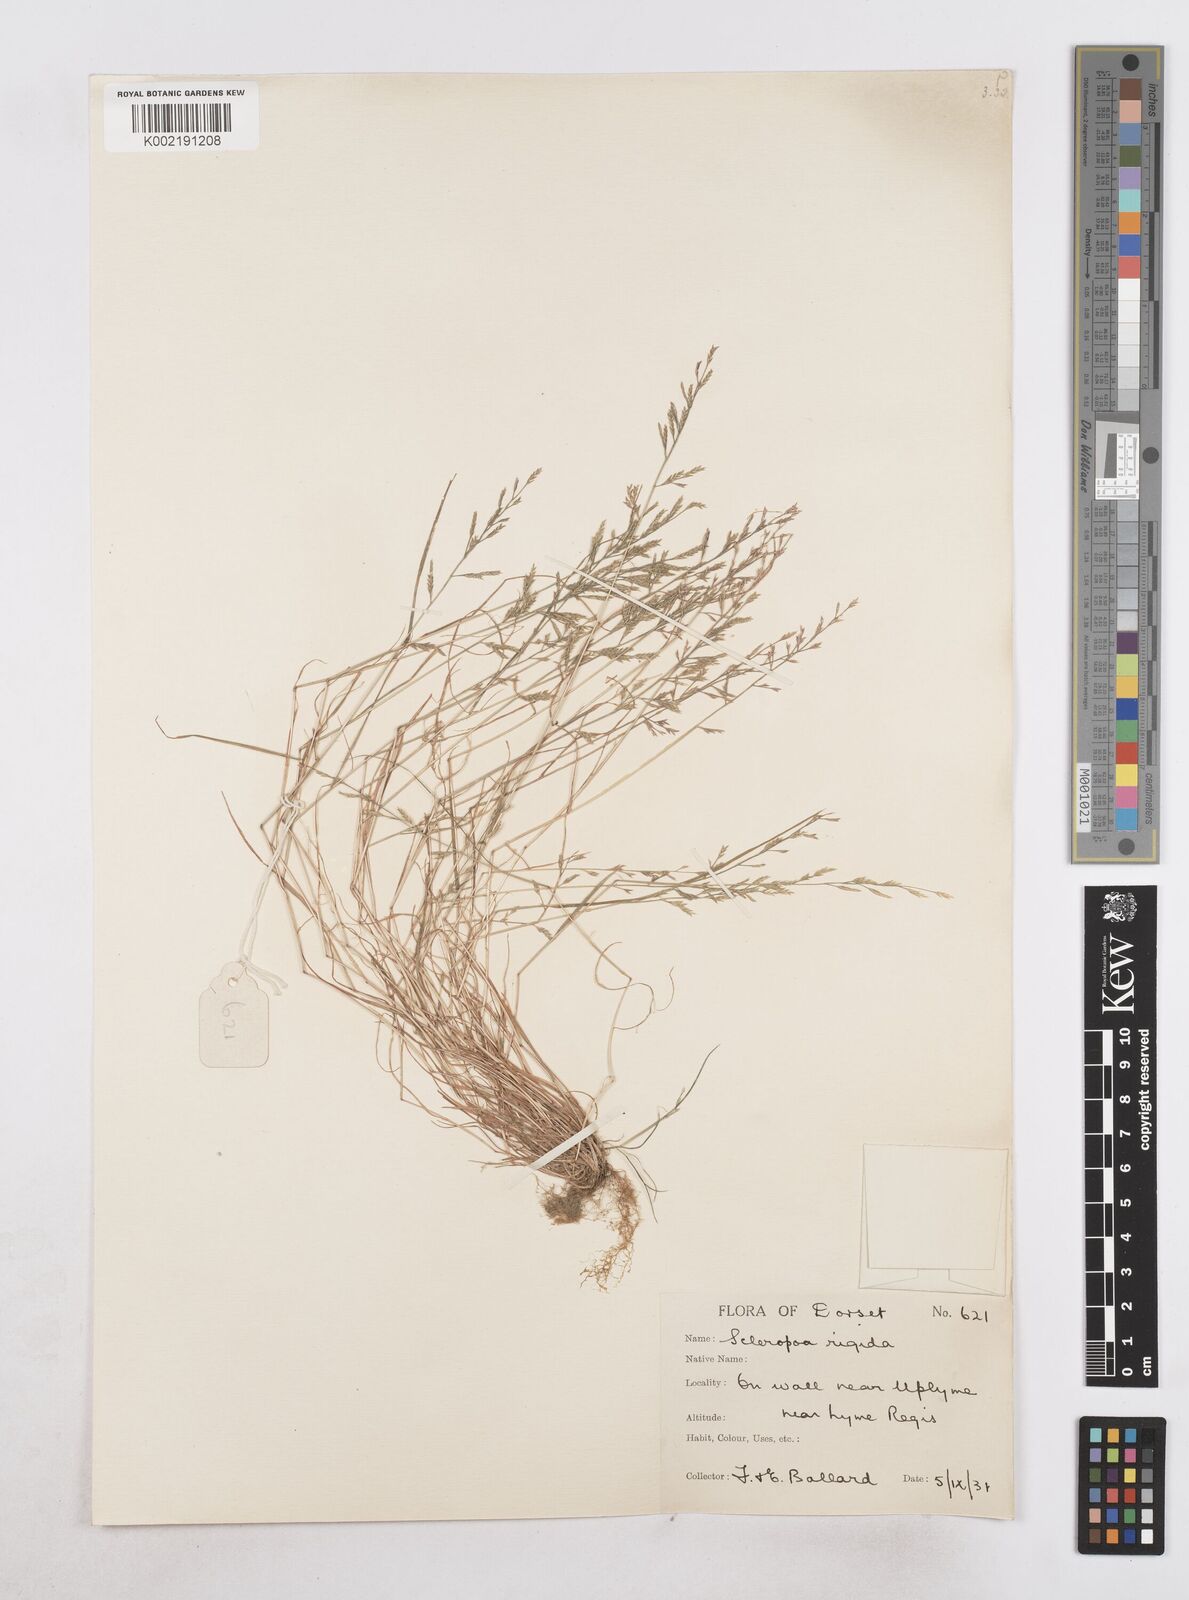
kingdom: Plantae
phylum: Tracheophyta
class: Liliopsida
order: Poales
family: Poaceae
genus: Catapodium
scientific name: Catapodium rigidum
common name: Fern-grass
